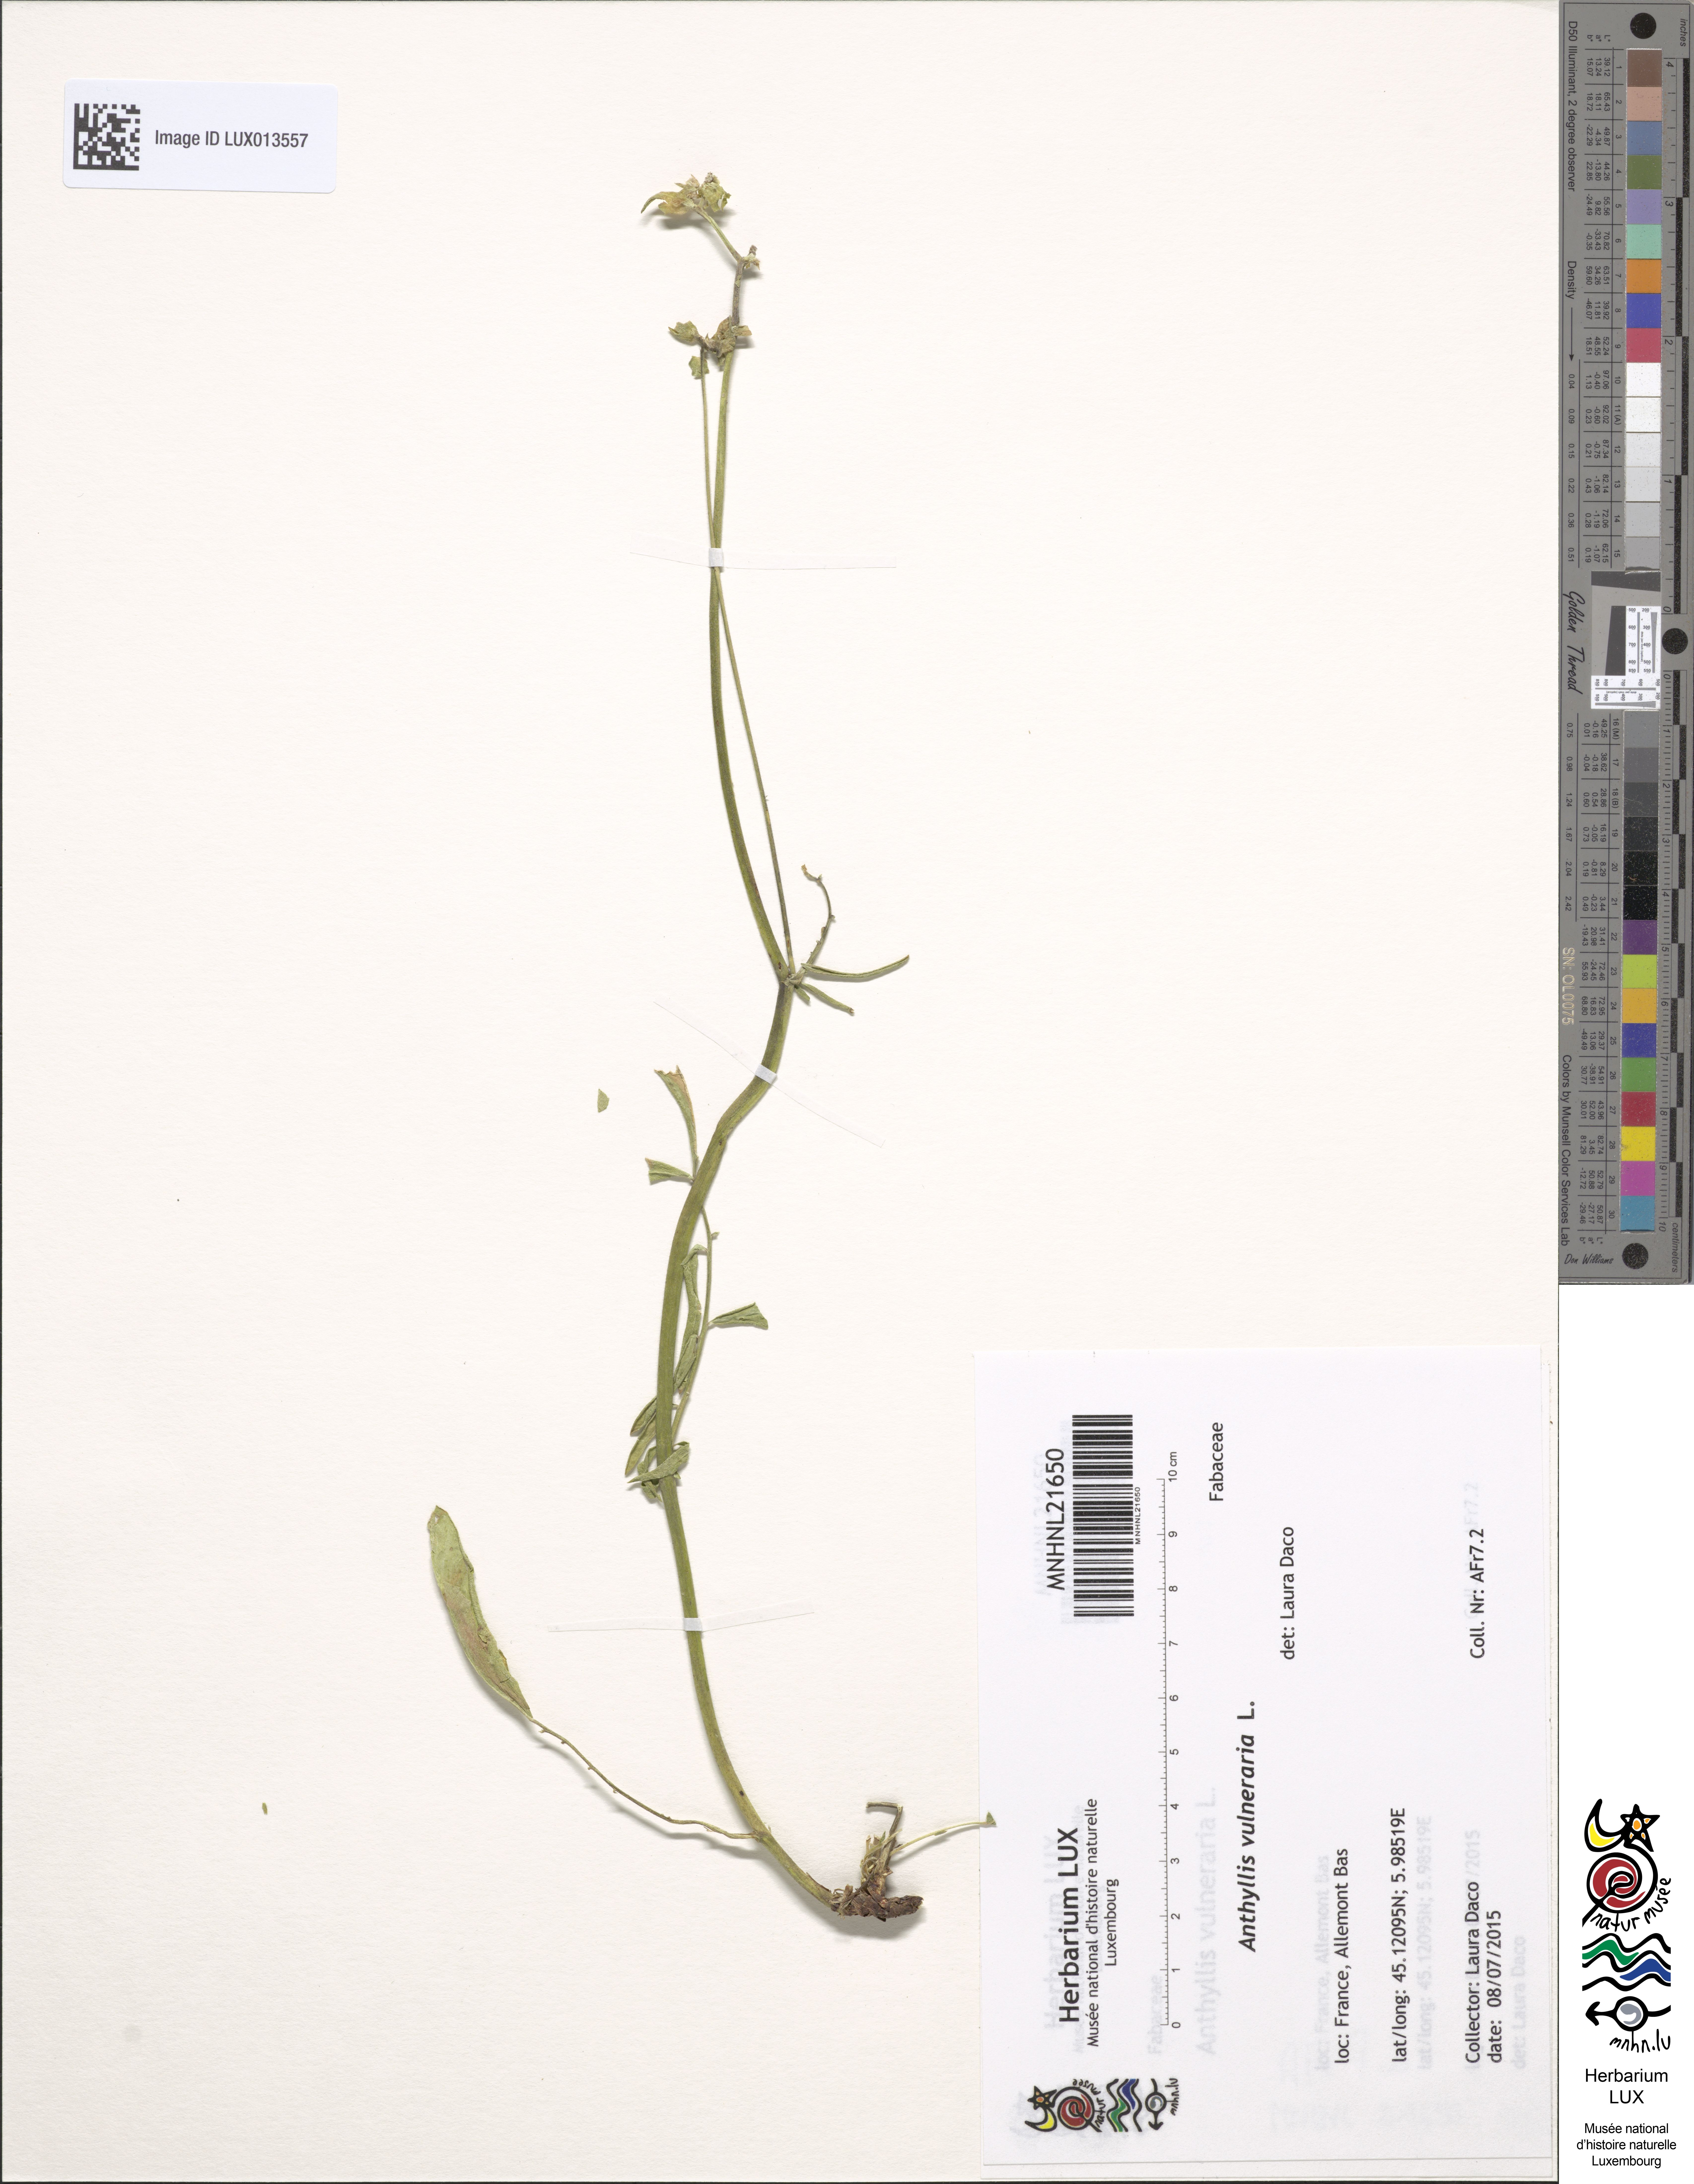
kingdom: Plantae
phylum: Tracheophyta
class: Magnoliopsida
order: Fabales
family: Fabaceae
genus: Anthyllis
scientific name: Anthyllis vulneraria
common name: Kidney vetch
